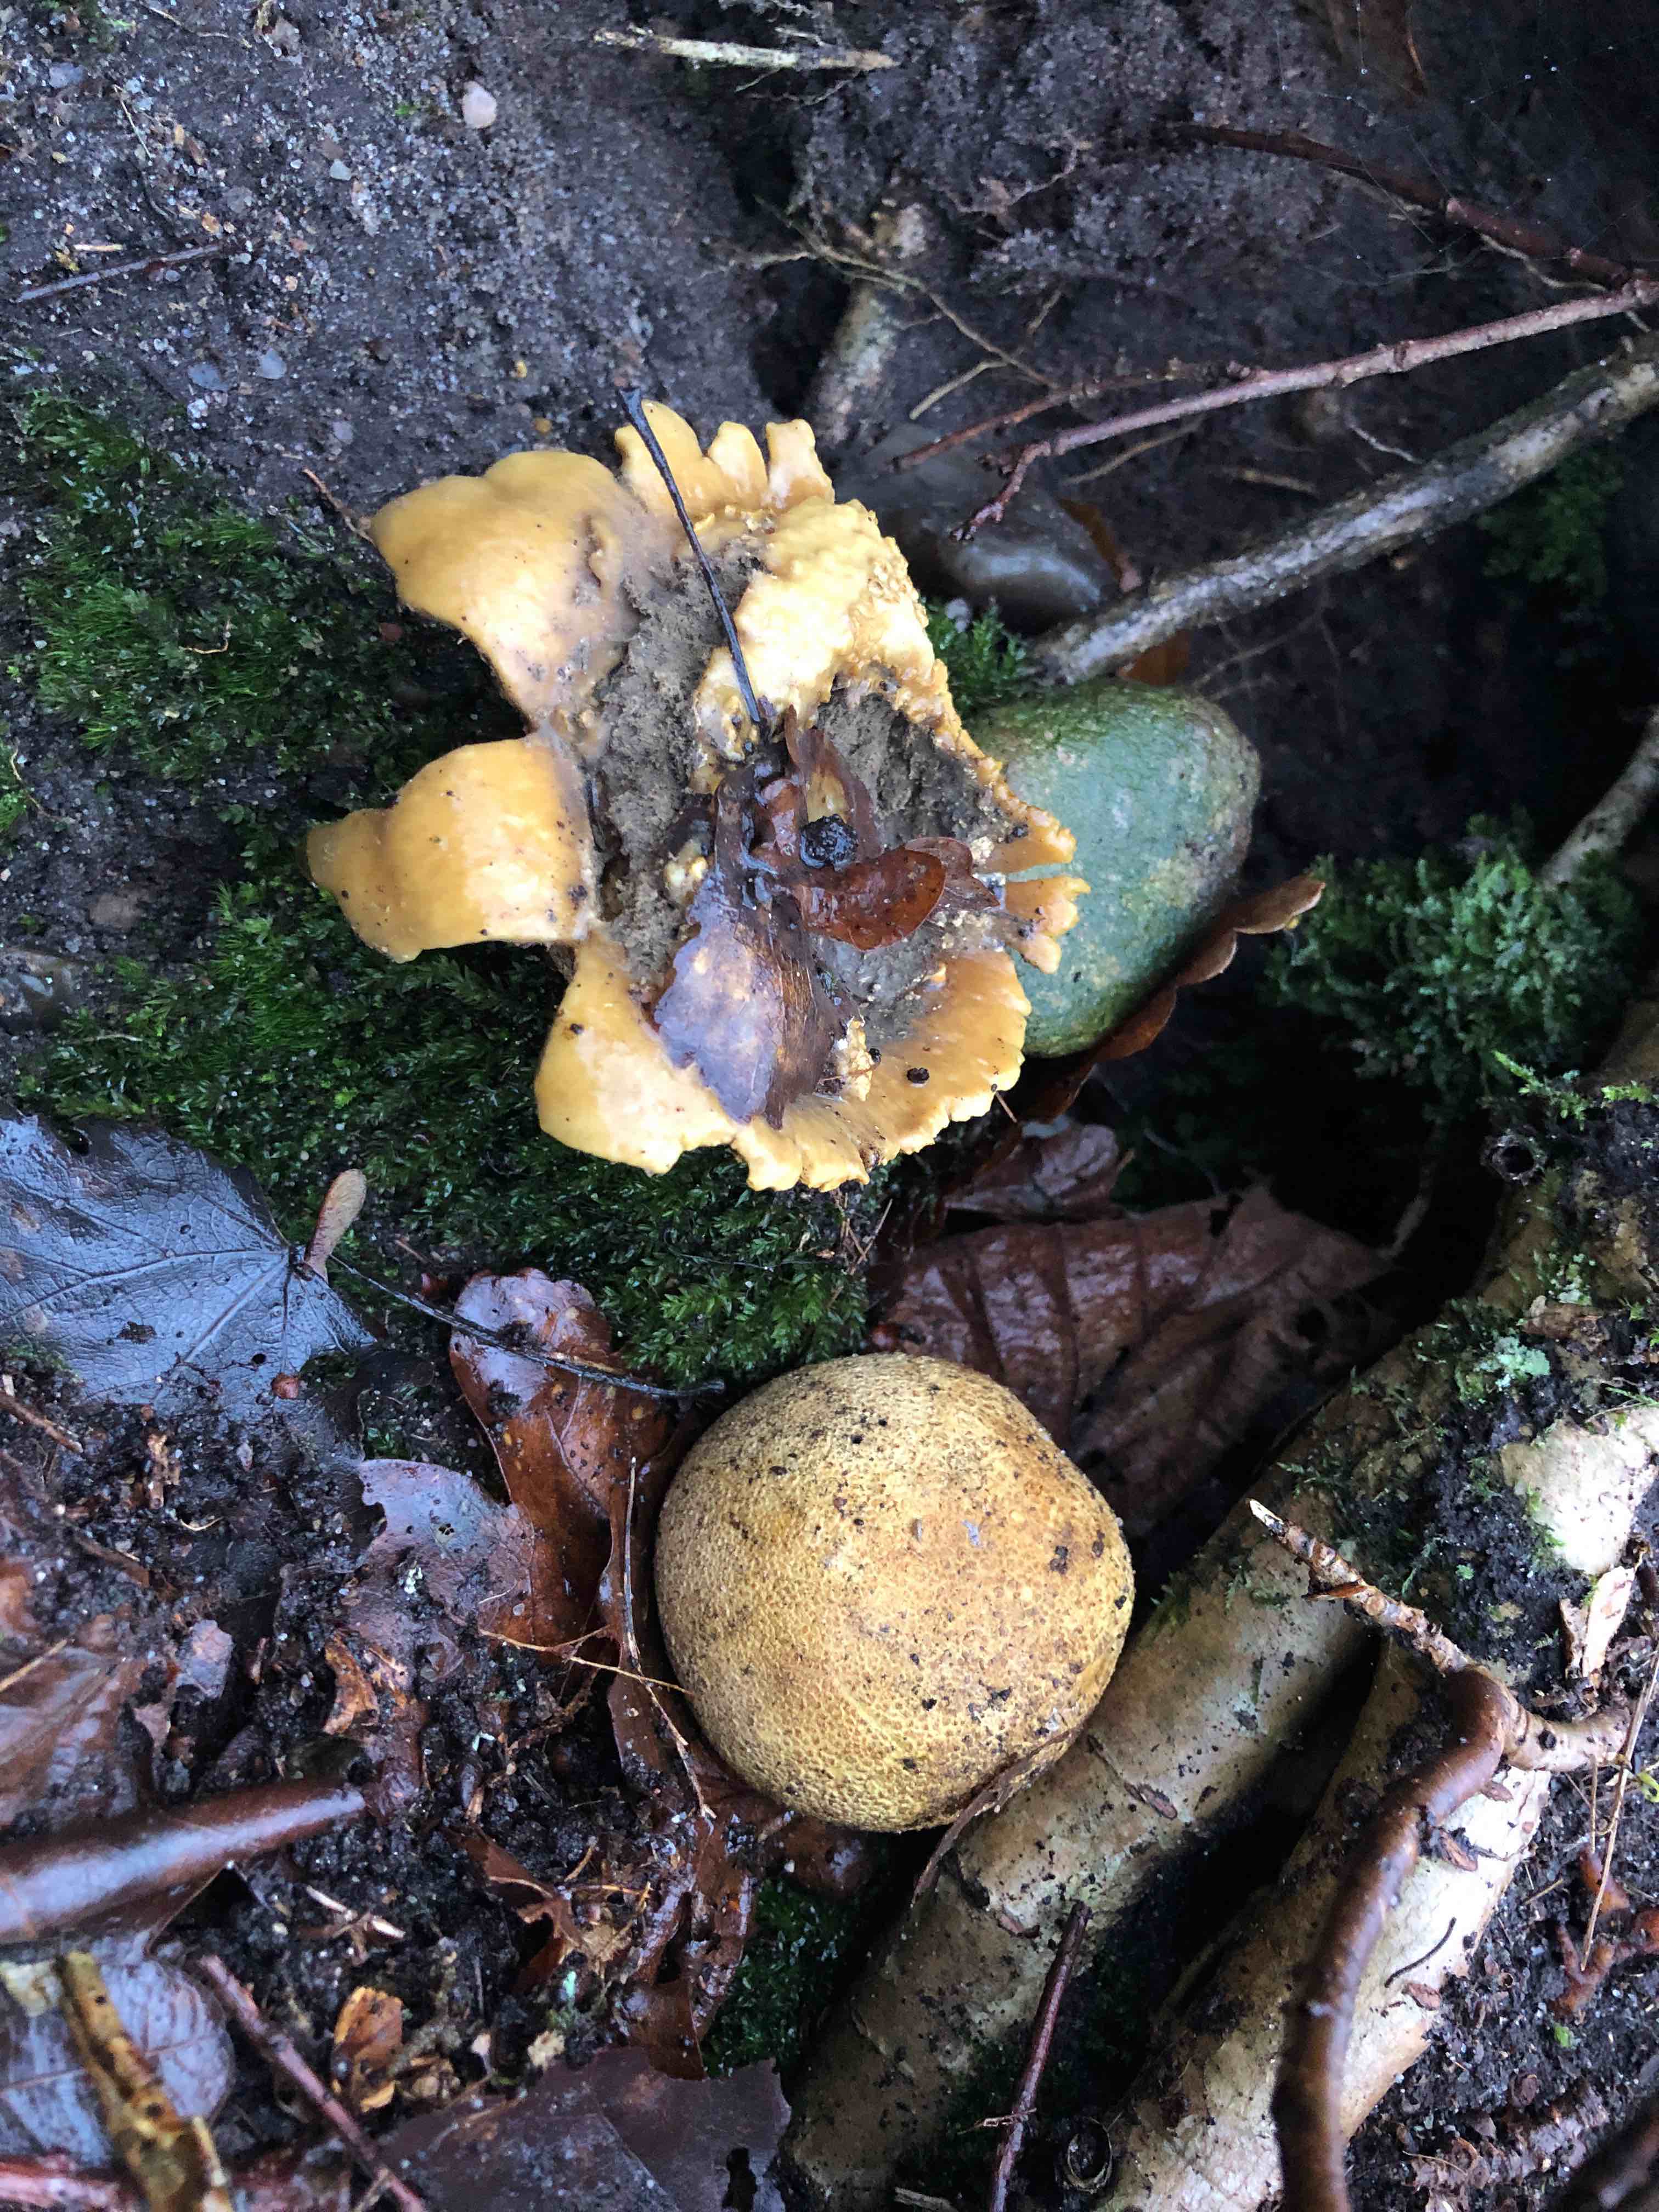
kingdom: Fungi
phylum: Basidiomycota
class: Agaricomycetes
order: Boletales
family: Sclerodermataceae
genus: Scleroderma
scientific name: Scleroderma citrinum
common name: almindelig bruskbold
